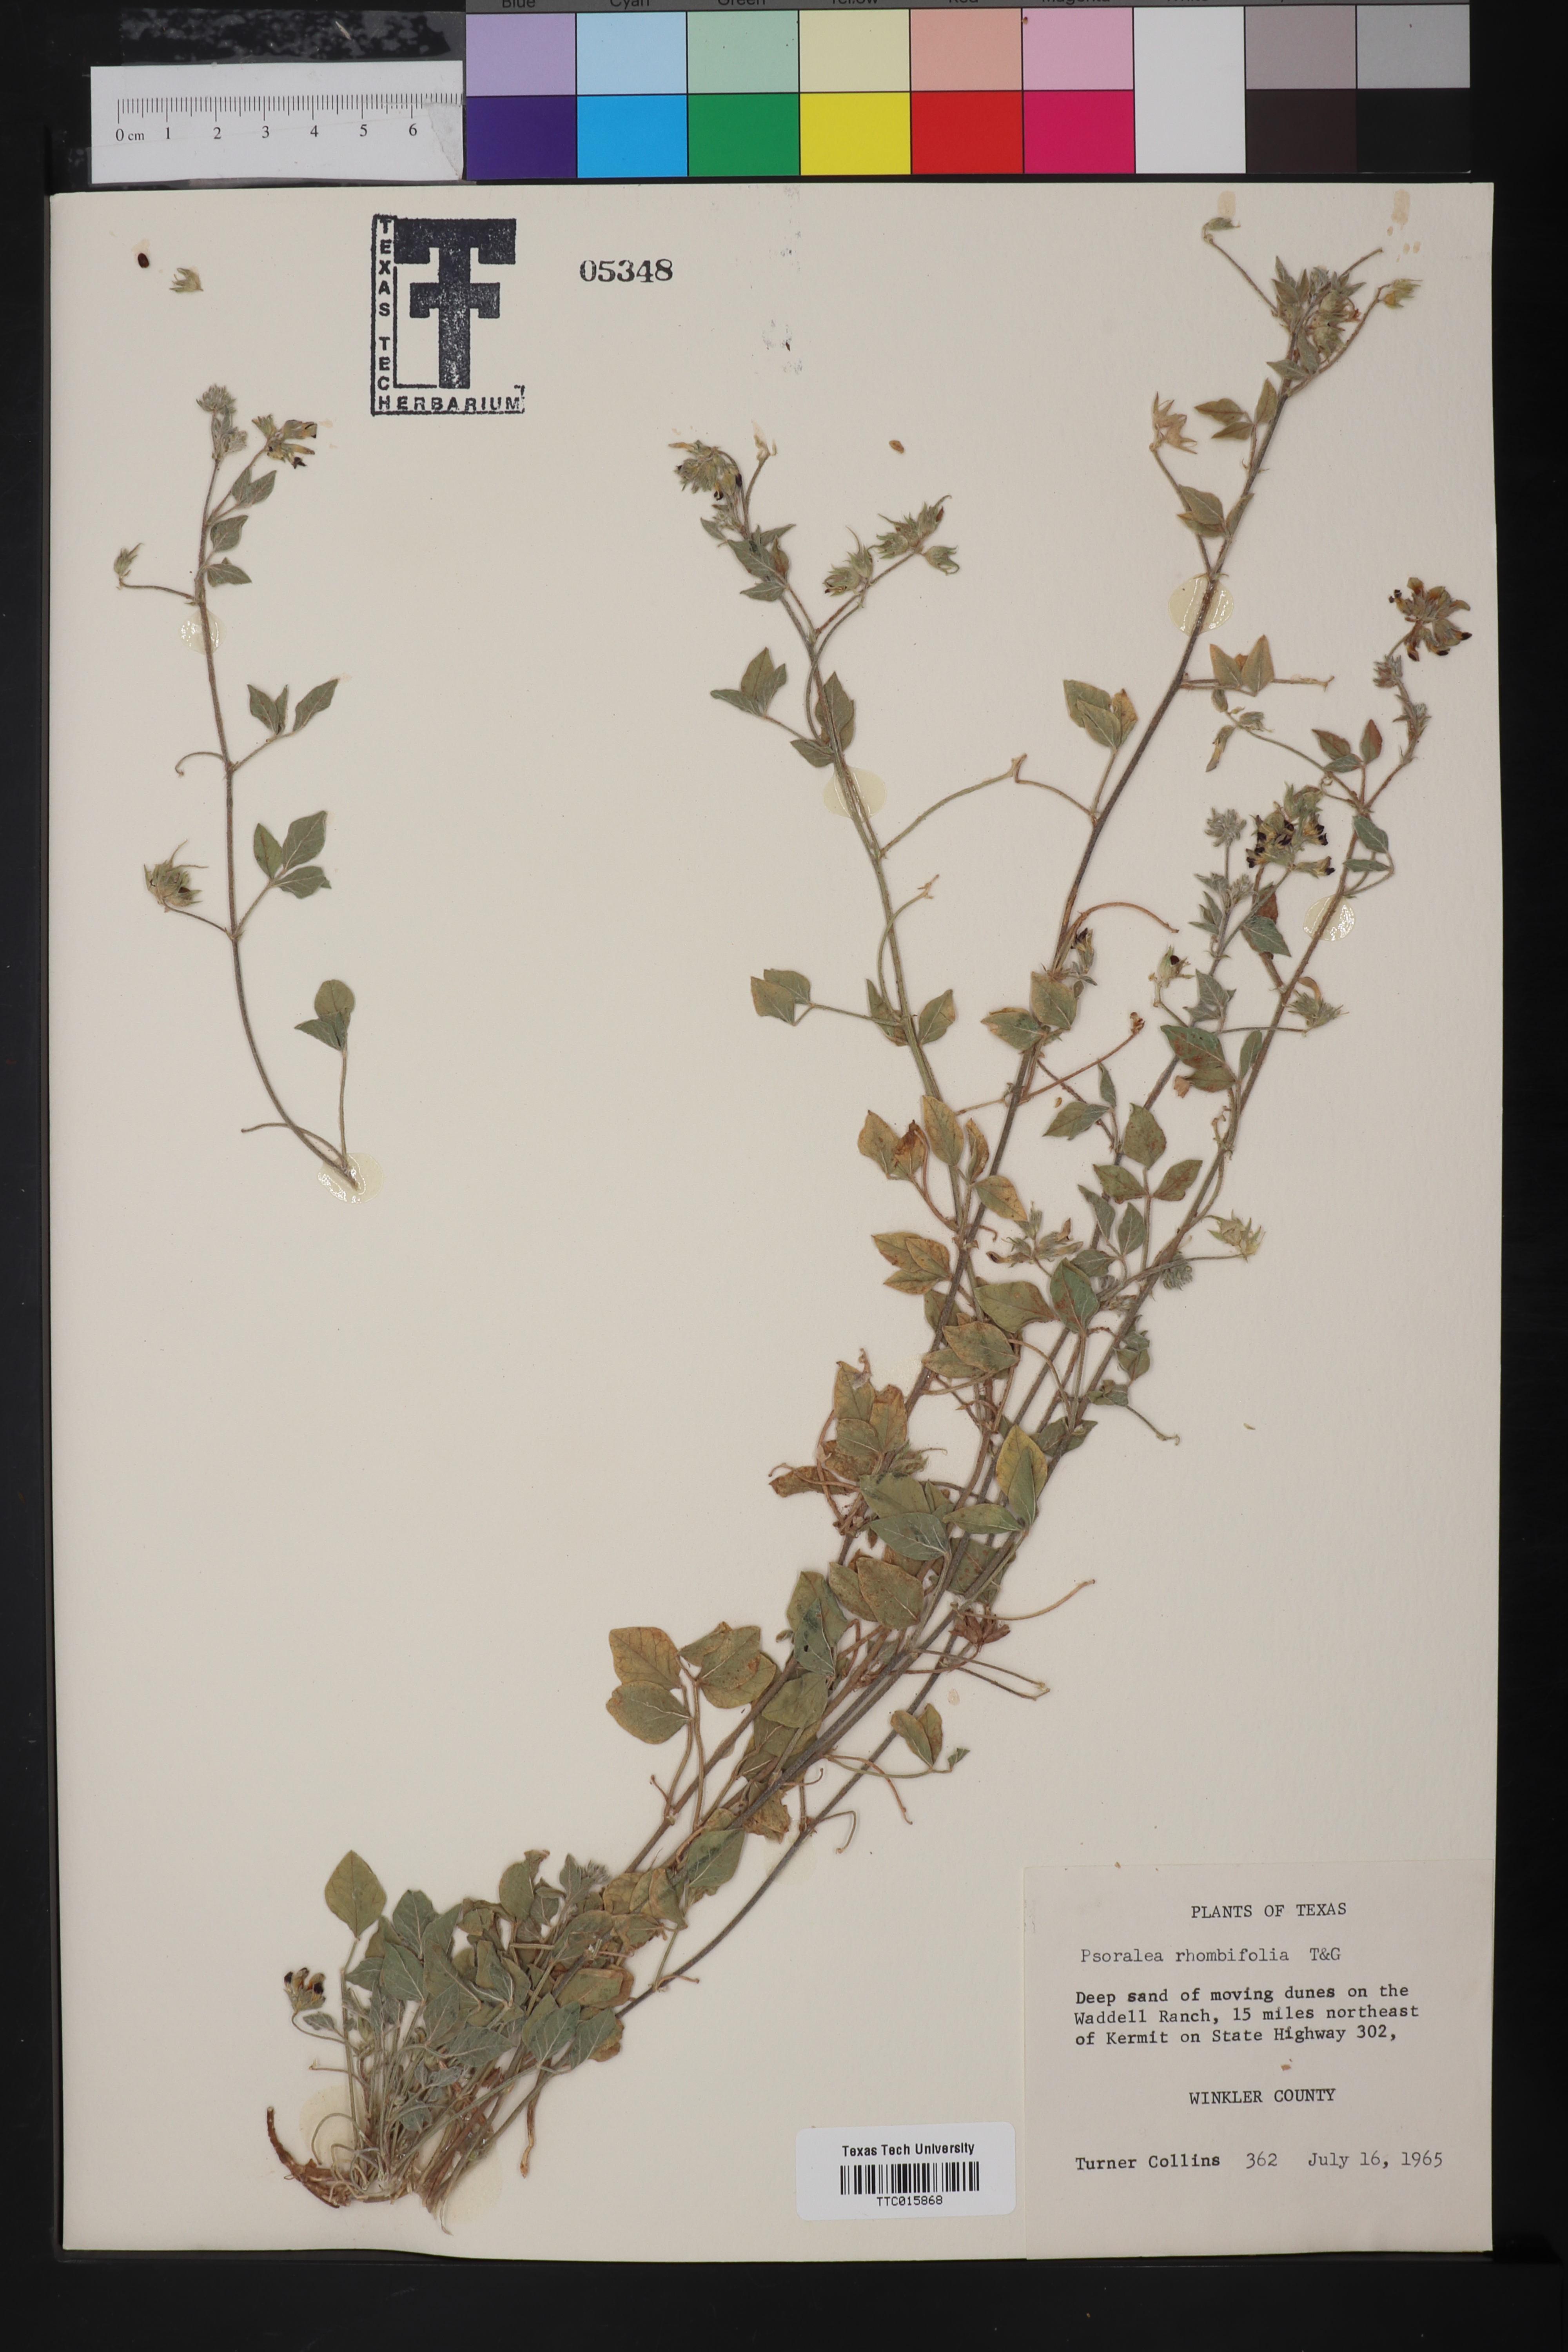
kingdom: Plantae
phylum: Tracheophyta
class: Magnoliopsida
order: Fabales
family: Fabaceae
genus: Pediomelum
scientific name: Pediomelum rhombifolium
